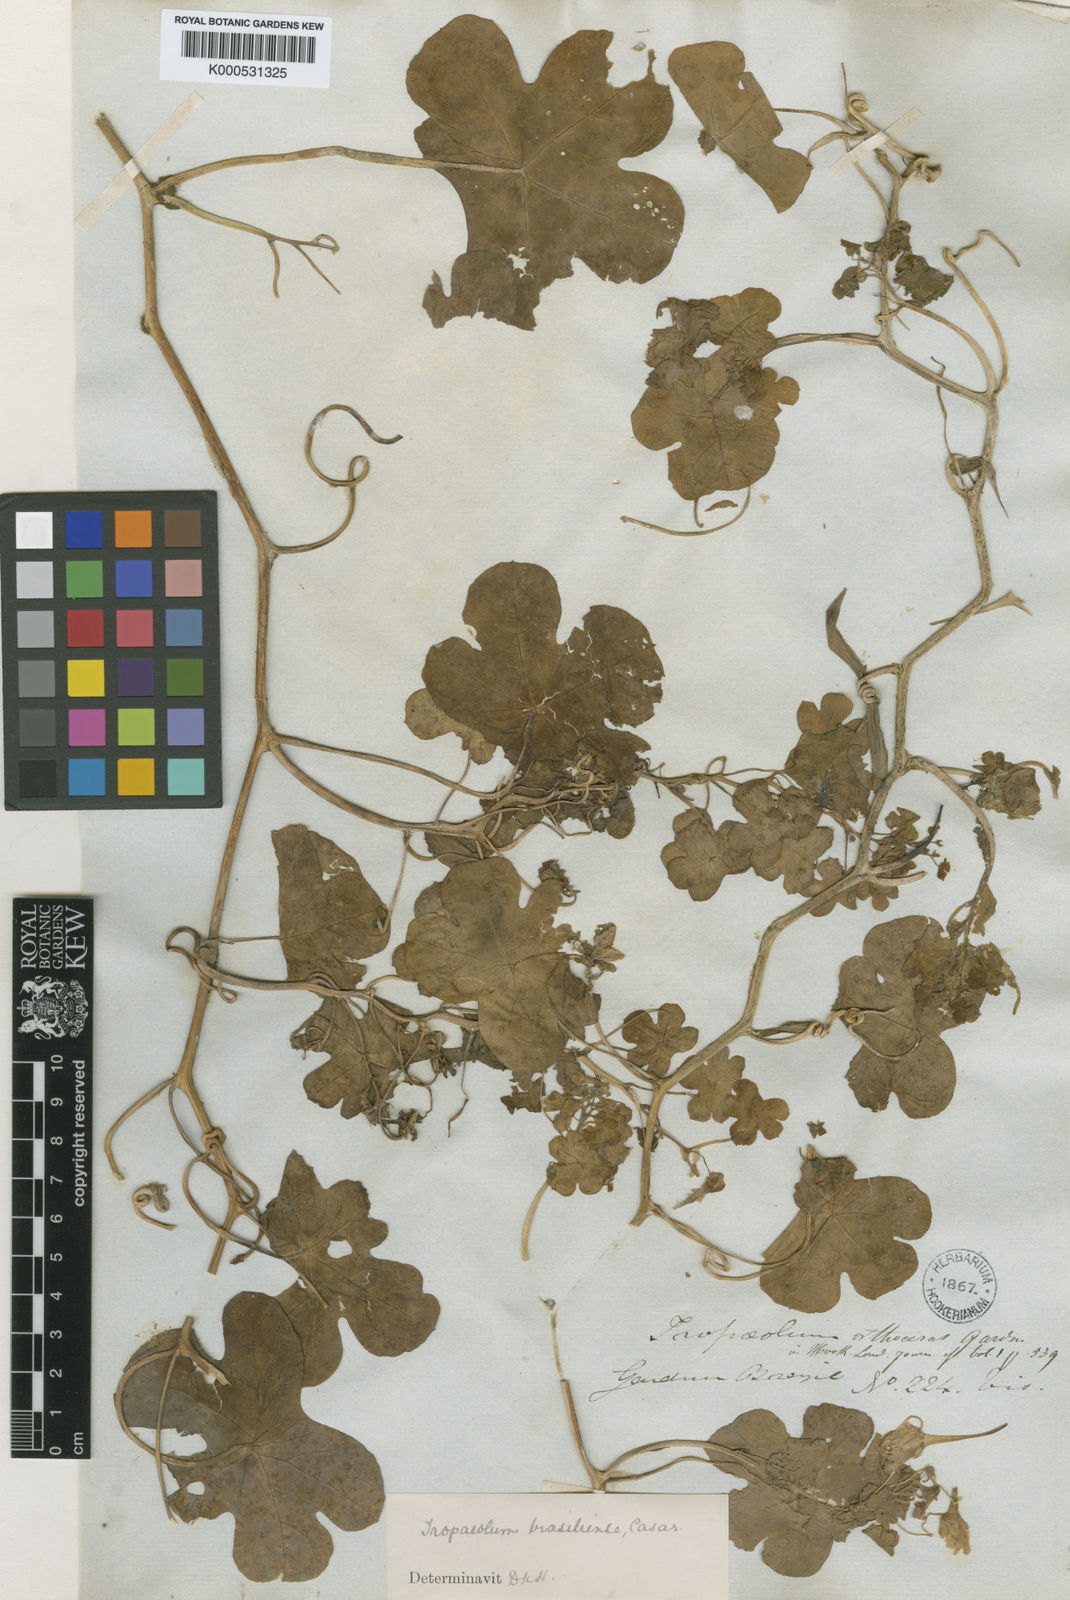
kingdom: Plantae
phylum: Tracheophyta
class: Magnoliopsida
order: Brassicales
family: Tropaeolaceae
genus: Tropaeolum
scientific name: Tropaeolum brasiliense
